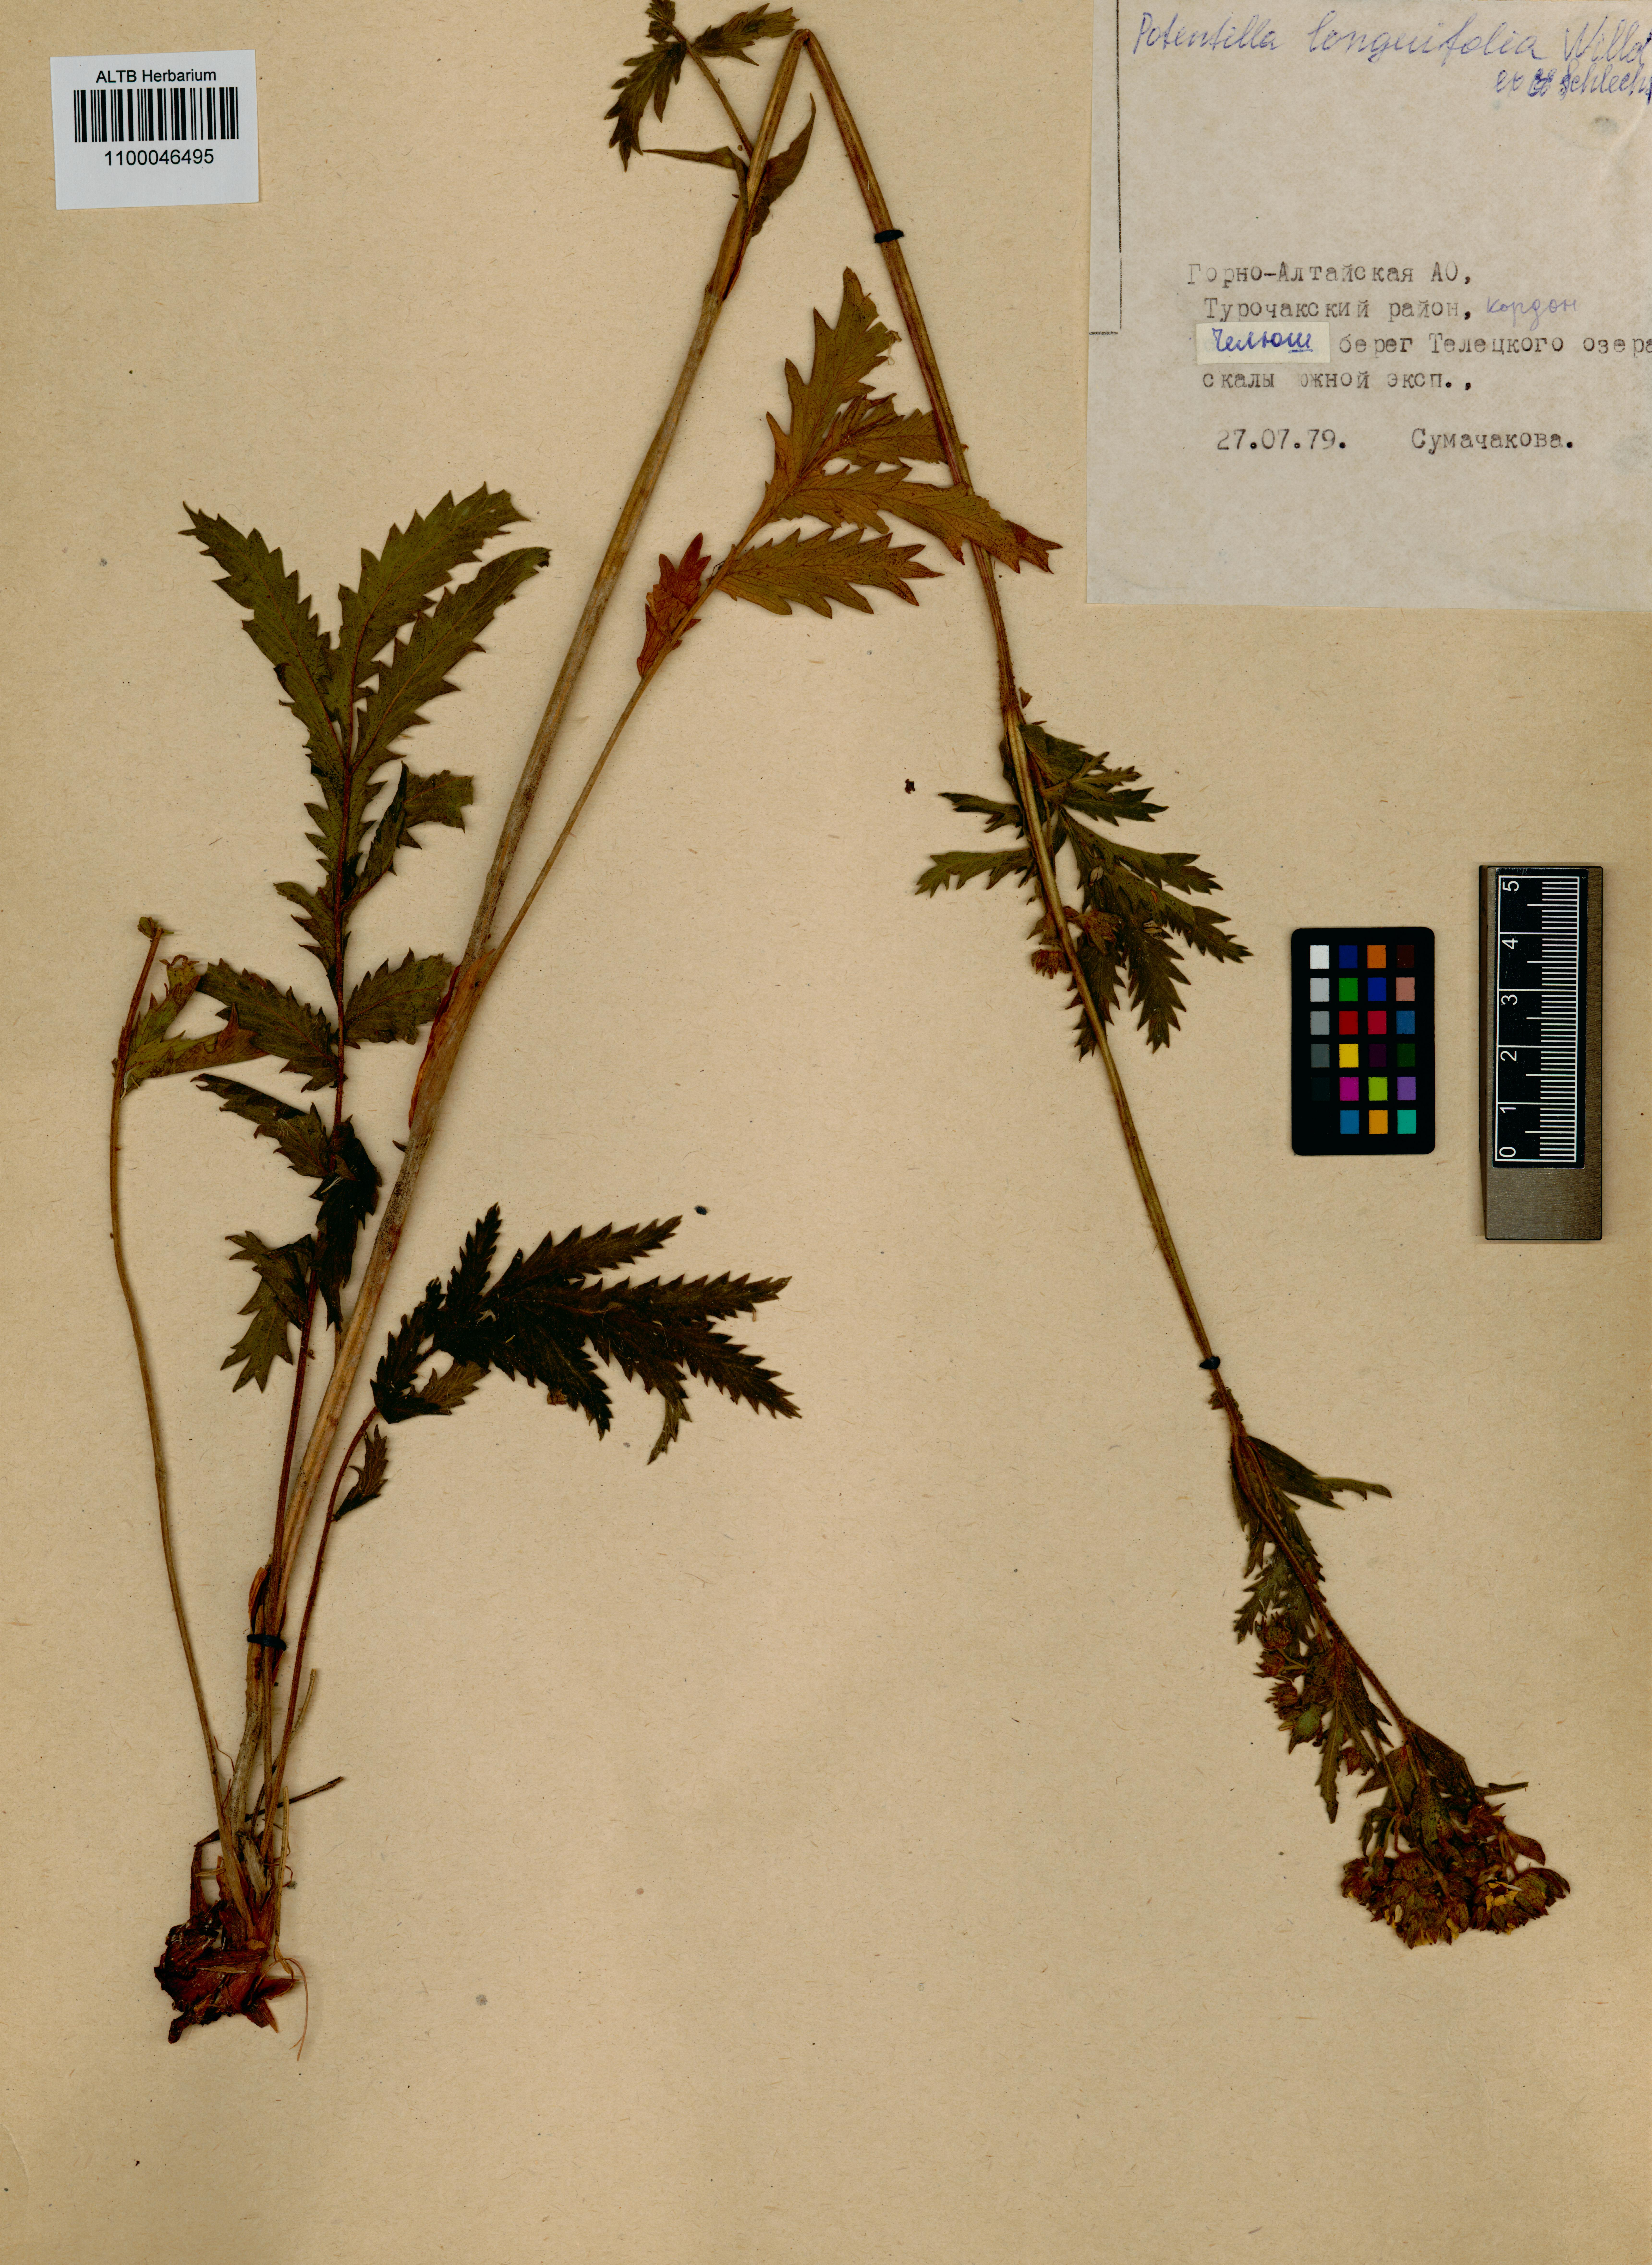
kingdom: Plantae
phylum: Tracheophyta
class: Magnoliopsida
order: Rosales
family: Rosaceae
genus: Potentilla
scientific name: Potentilla longifolia
